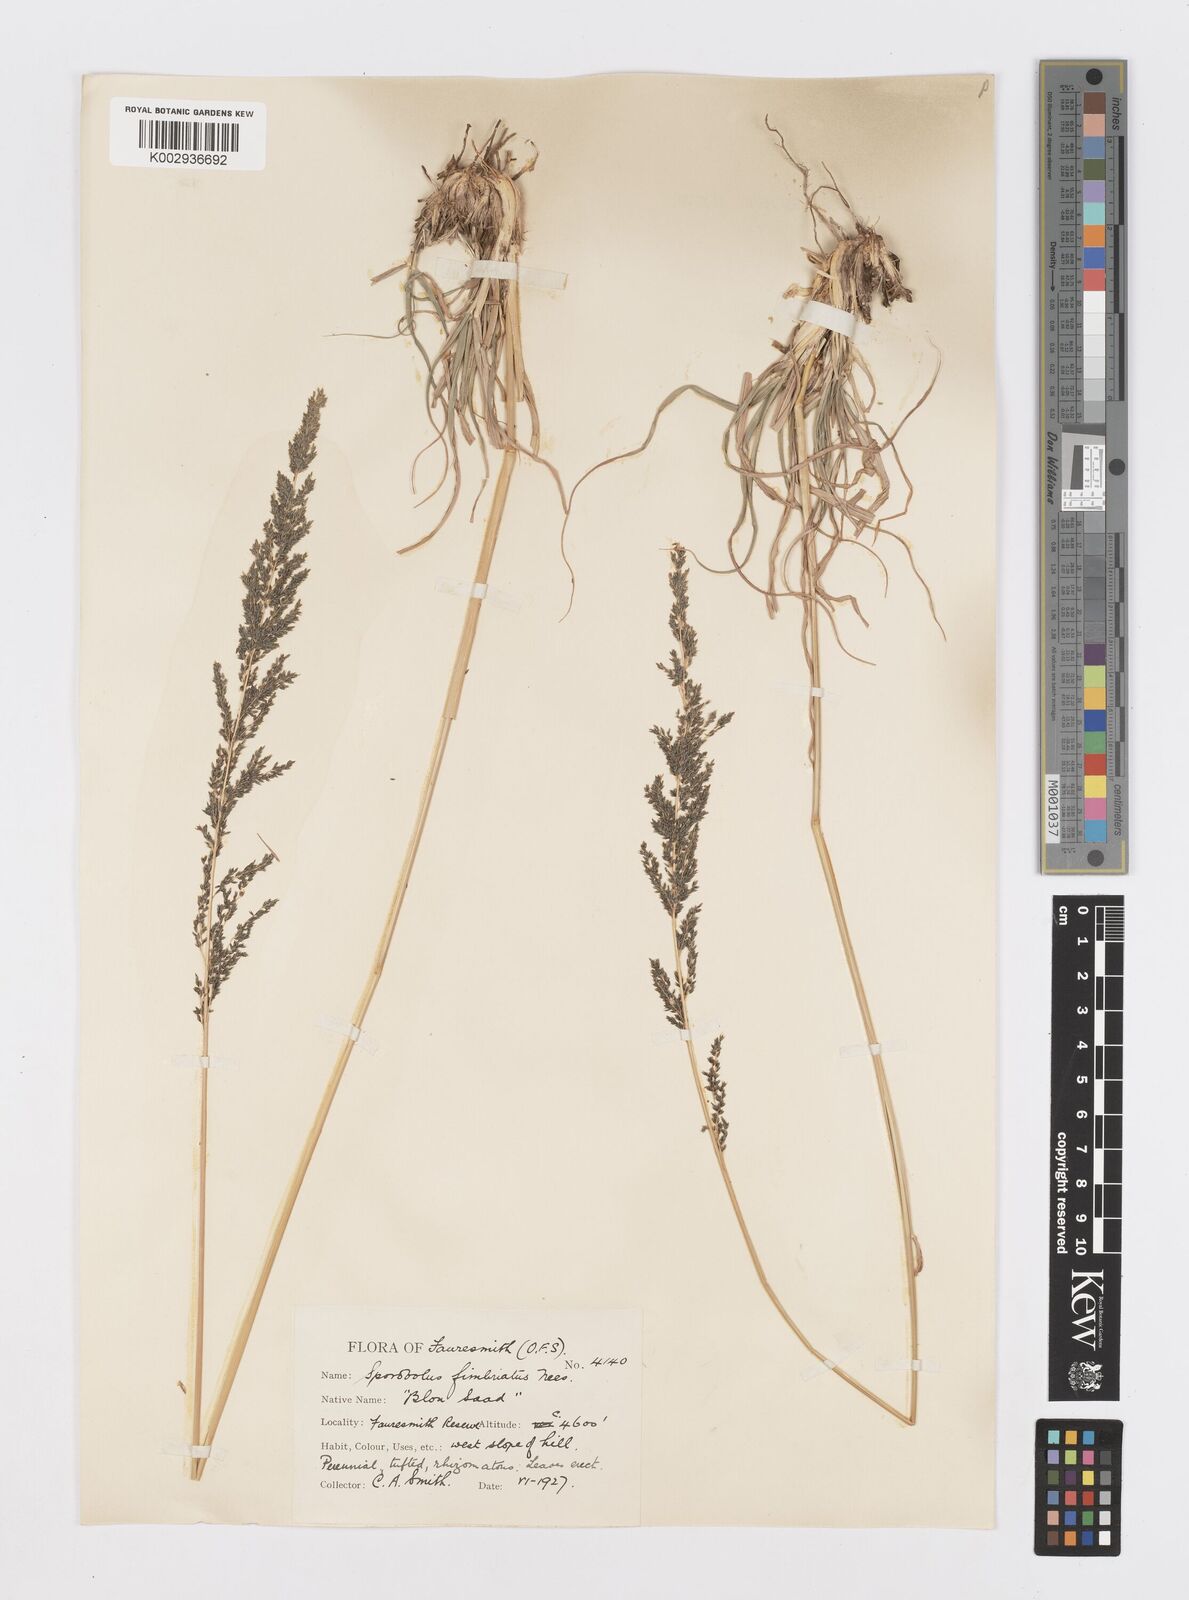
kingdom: Plantae
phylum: Tracheophyta
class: Liliopsida
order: Poales
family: Poaceae
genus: Sporobolus
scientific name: Sporobolus fimbriatus
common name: Fringed dropseed
